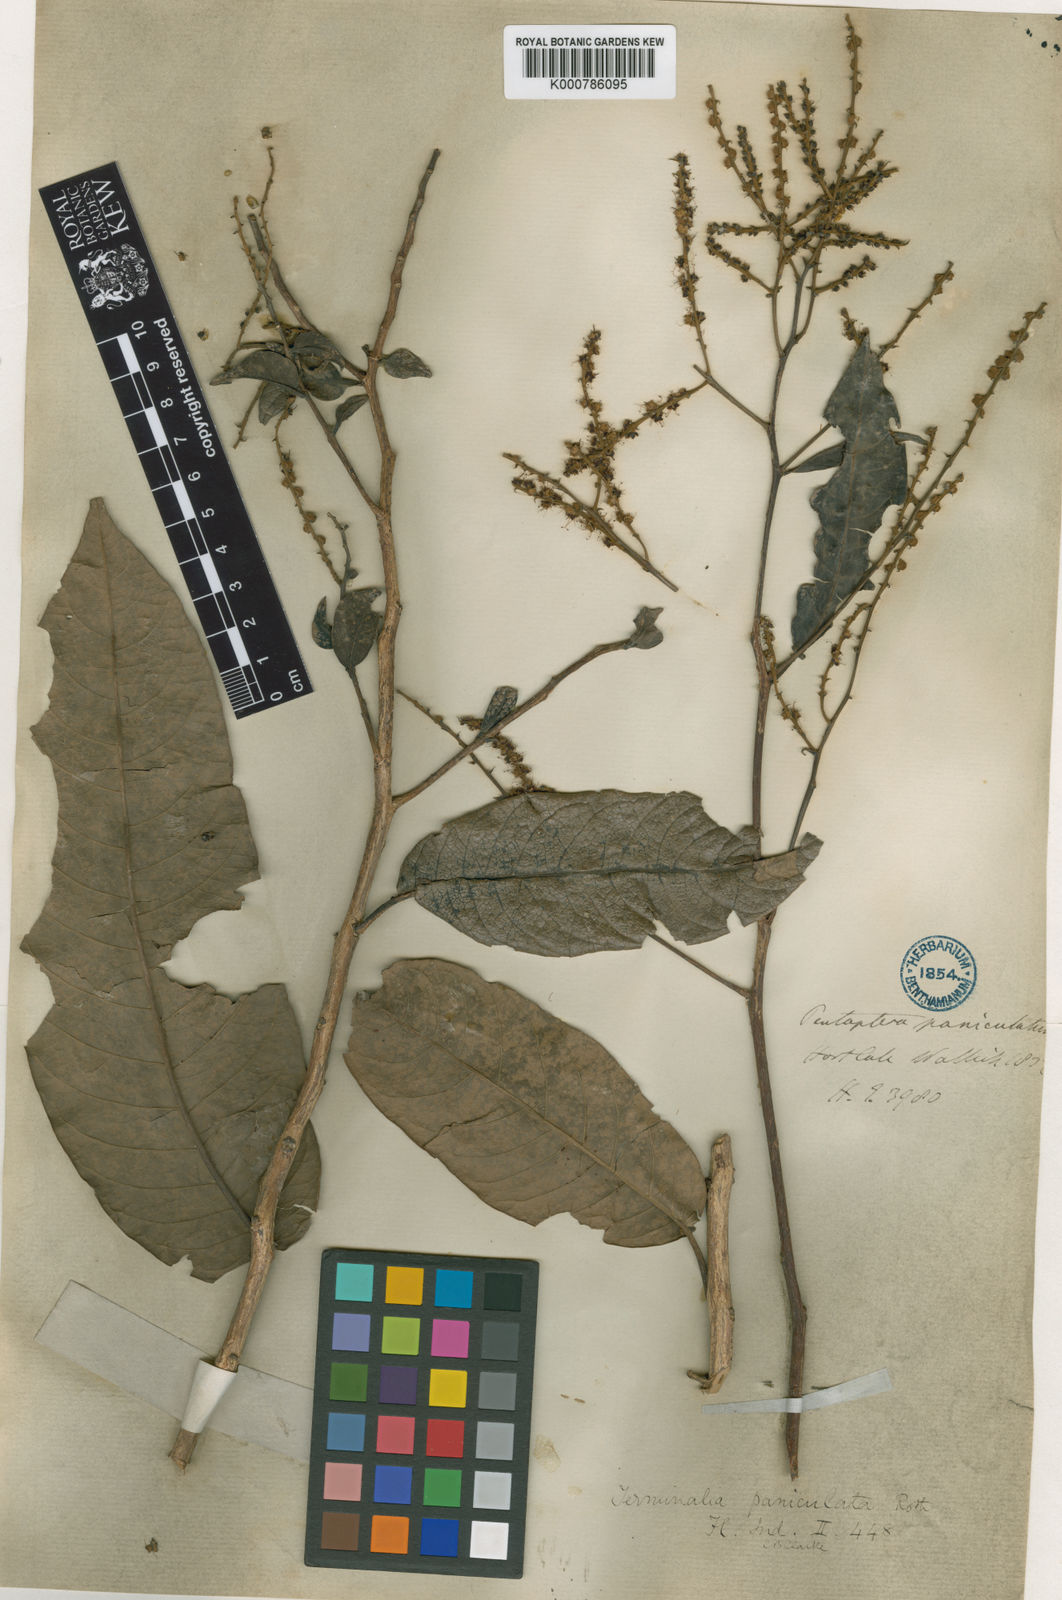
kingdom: Plantae
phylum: Tracheophyta
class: Magnoliopsida
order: Myrtales
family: Combretaceae
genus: Terminalia
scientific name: Terminalia paniculata
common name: Flowering murdah
